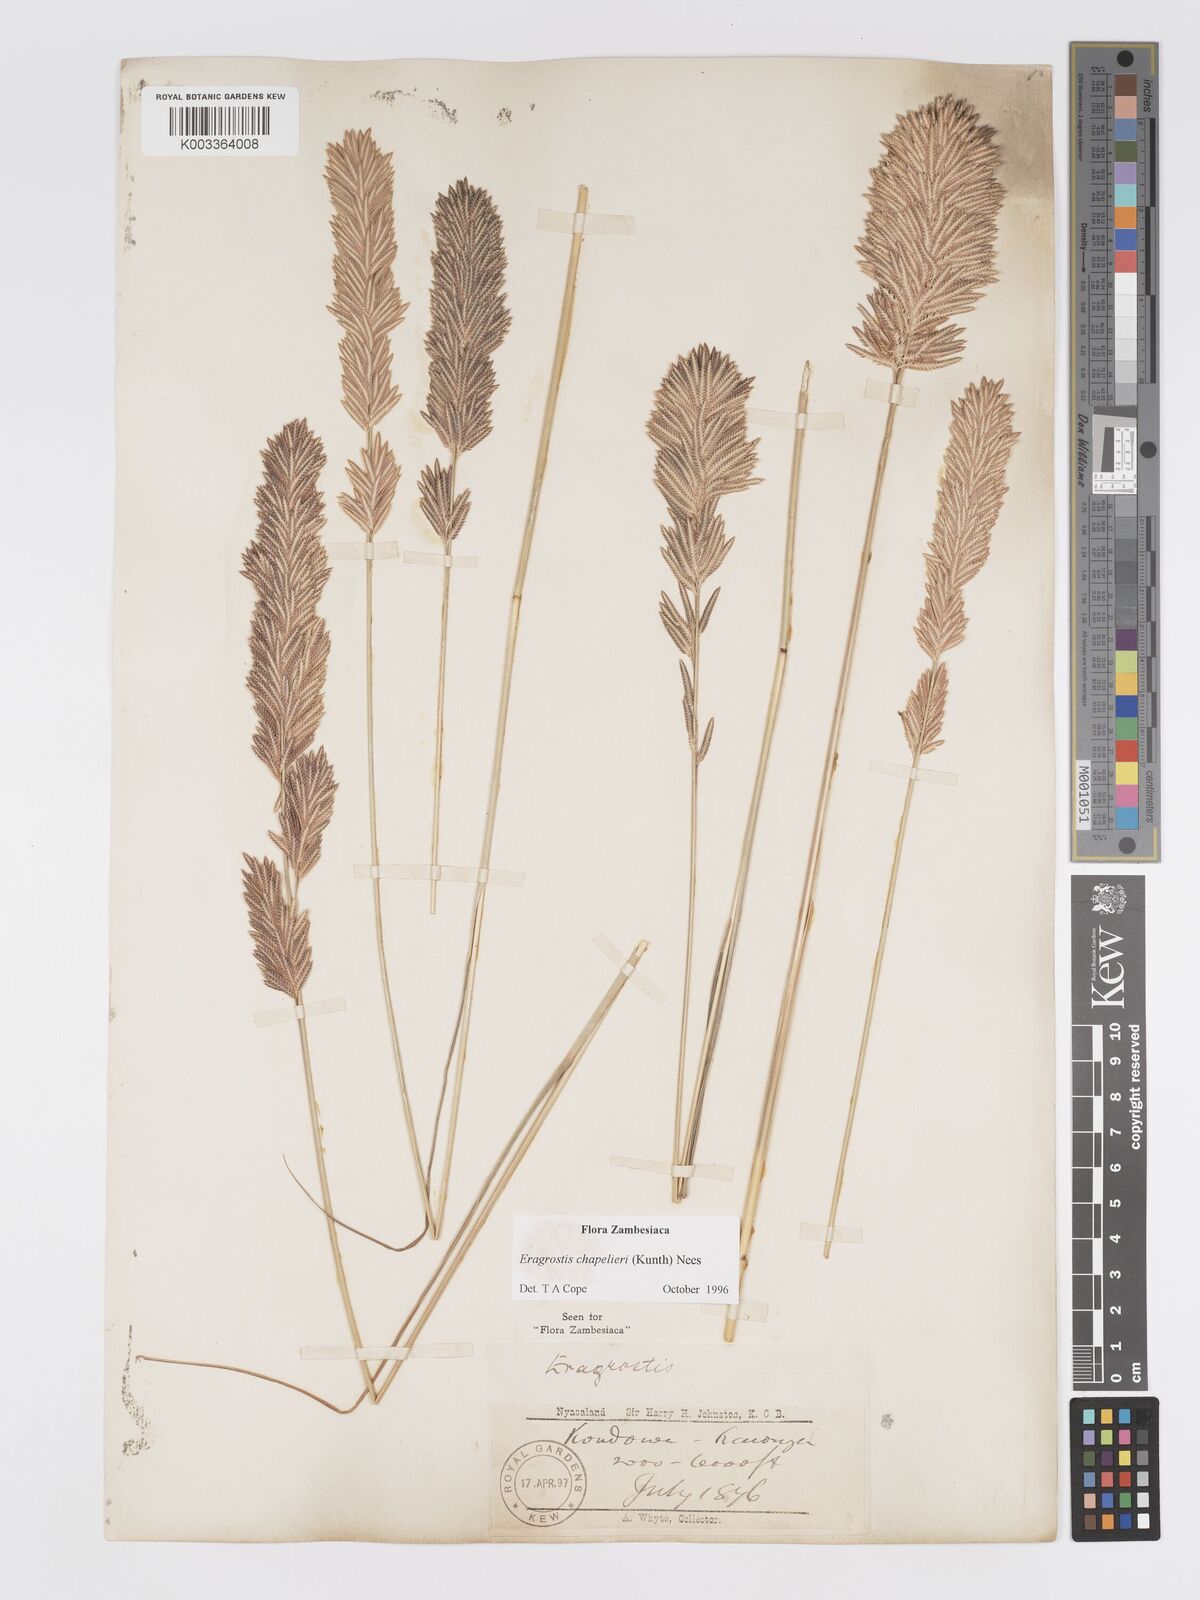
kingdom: Plantae
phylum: Tracheophyta
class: Liliopsida
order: Poales
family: Poaceae
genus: Eragrostis
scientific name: Eragrostis chapelieri
